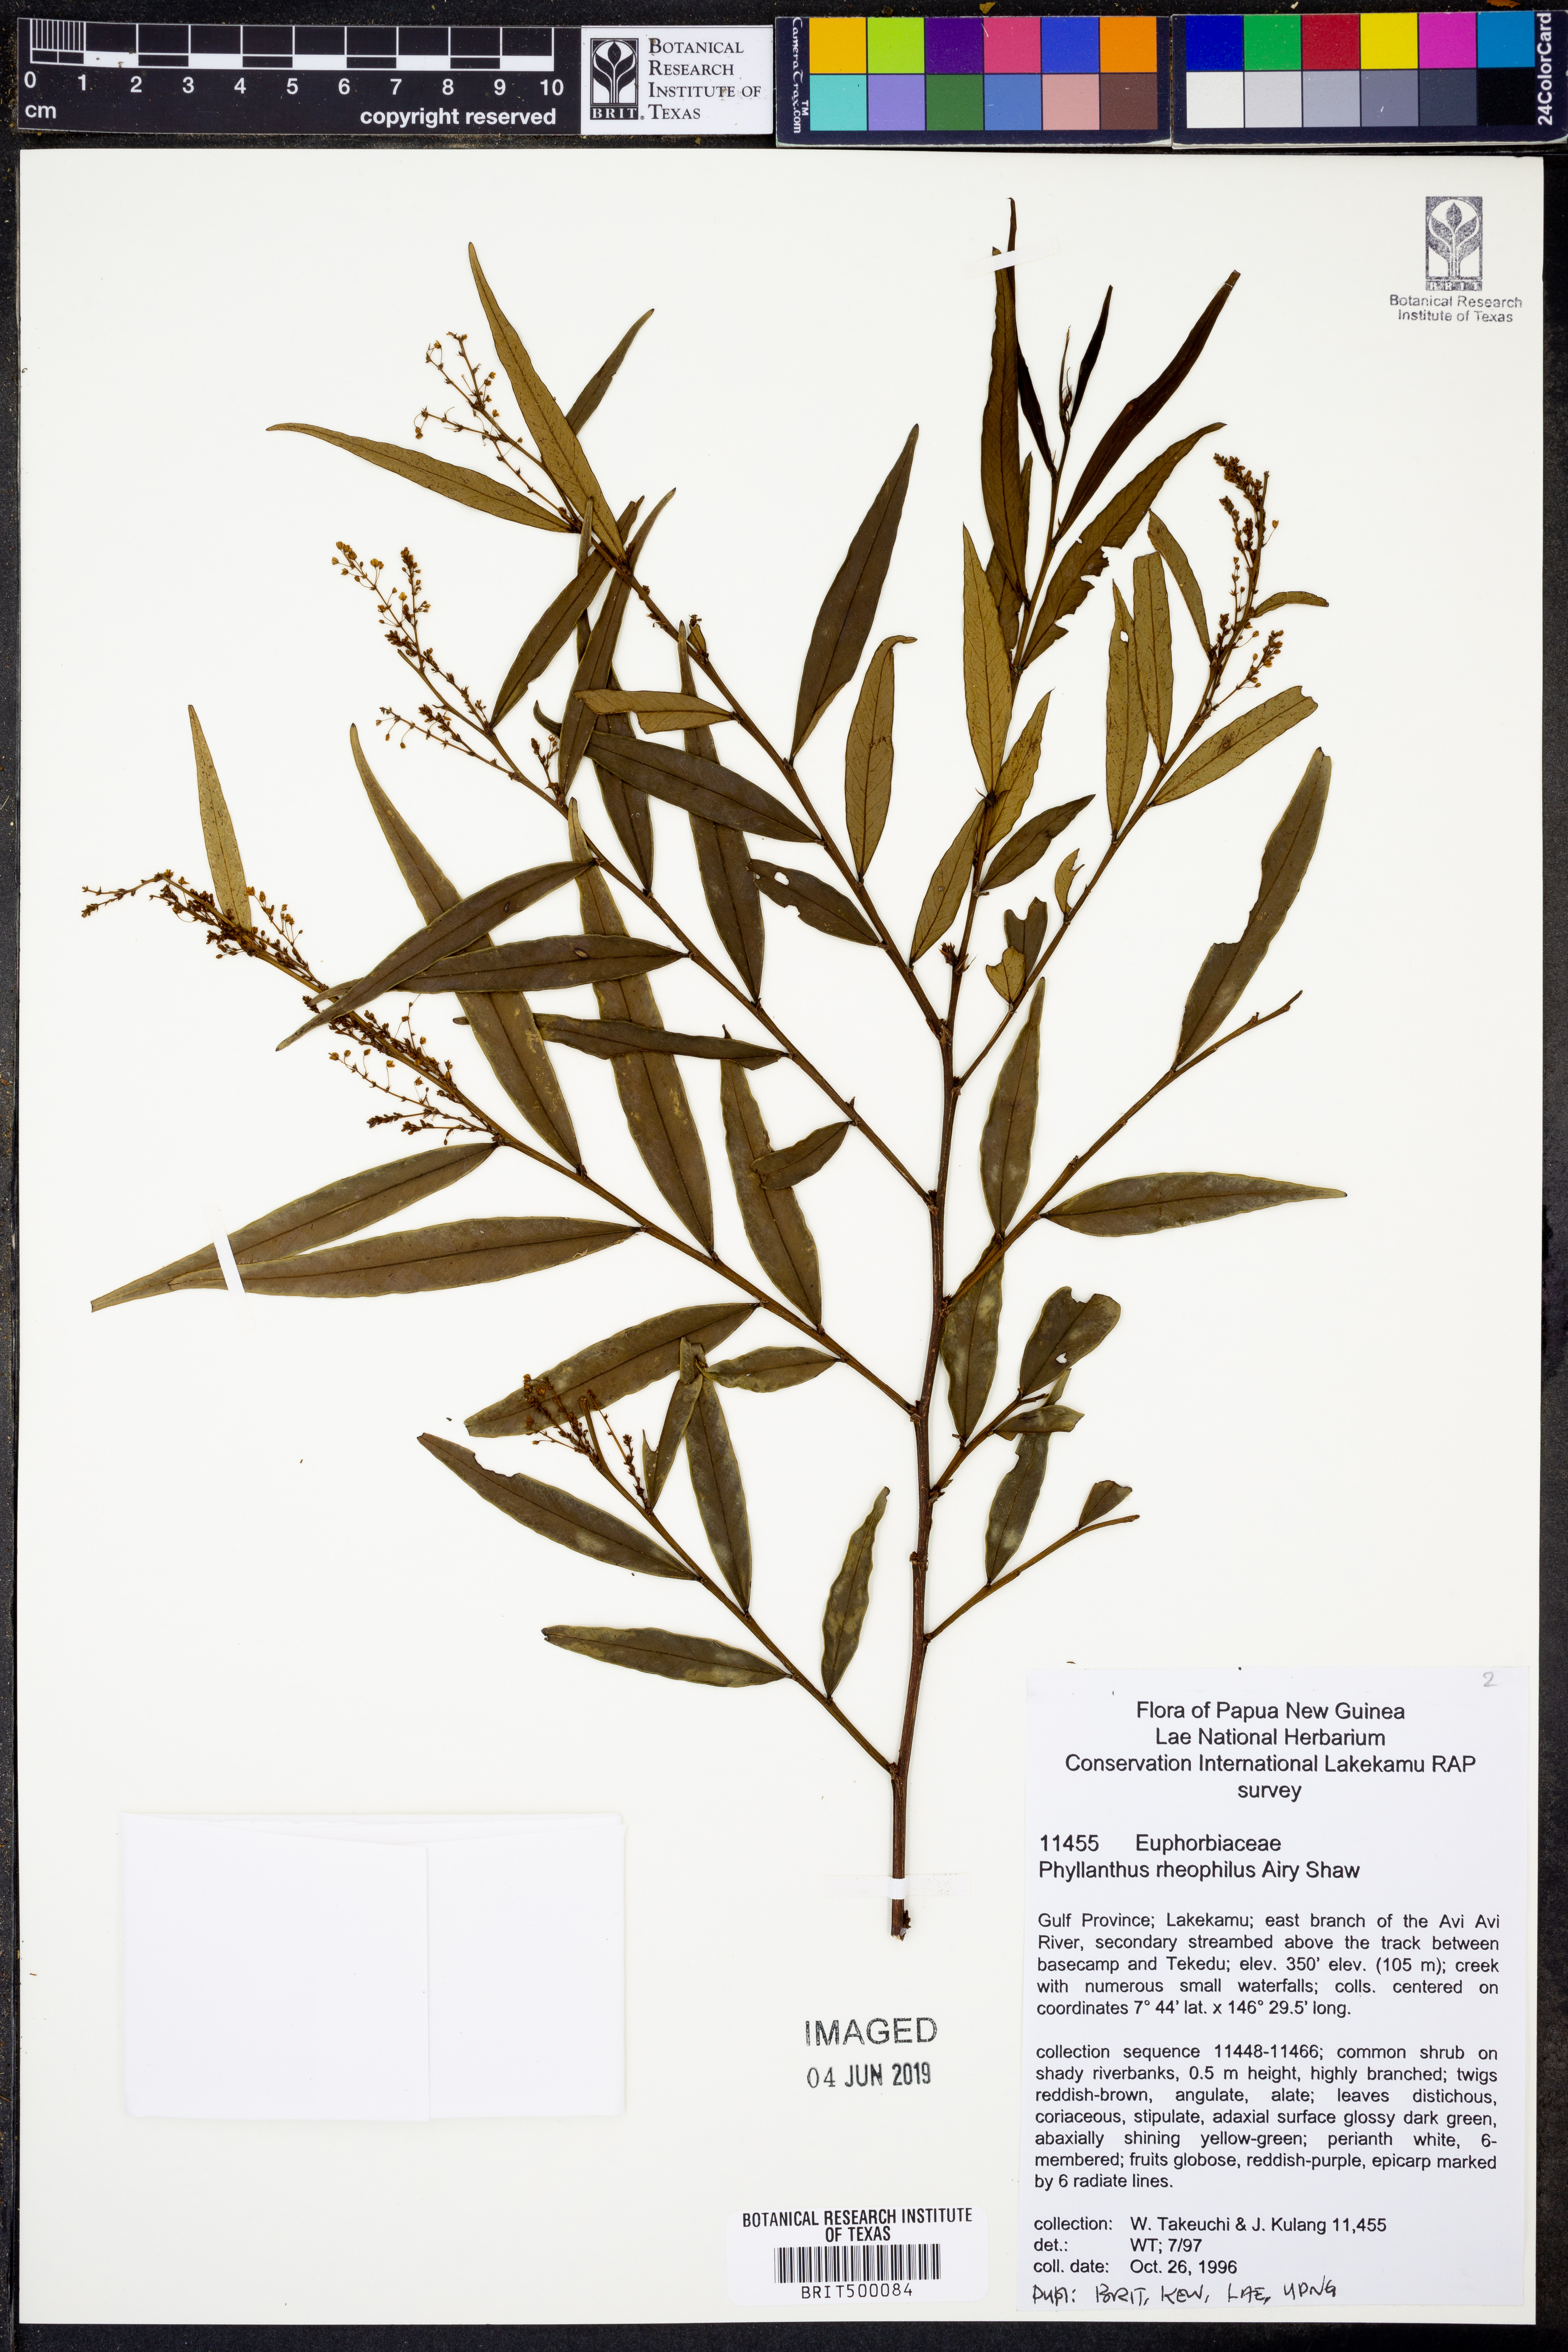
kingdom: Plantae
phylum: Tracheophyta
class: Magnoliopsida
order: Malpighiales
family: Phyllanthaceae
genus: Phyllanthus
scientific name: Phyllanthus rheophilus
